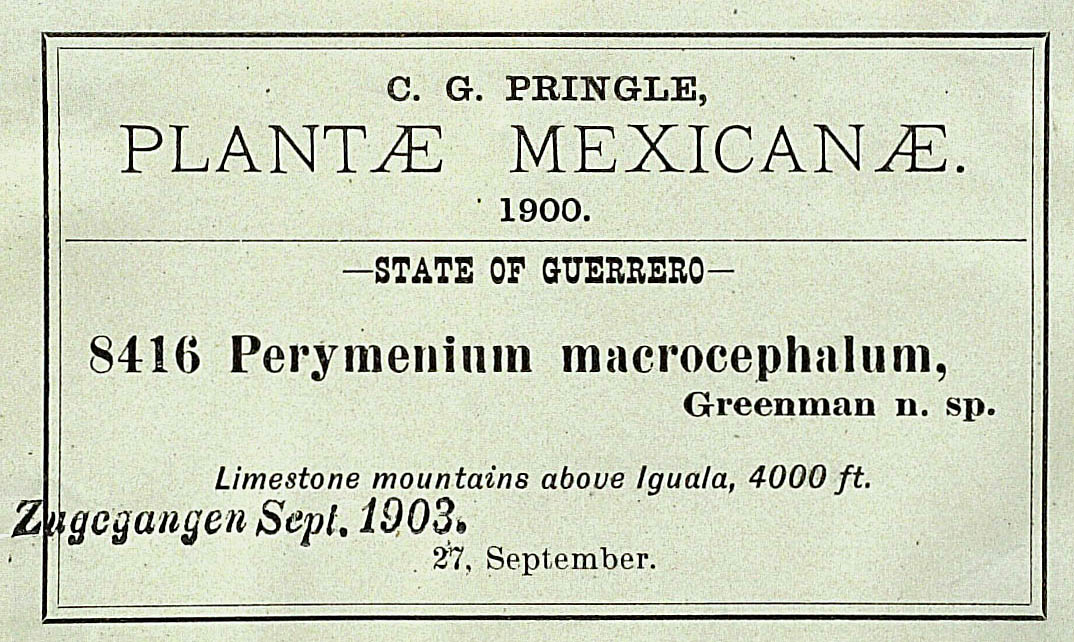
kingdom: Plantae
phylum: Tracheophyta
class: Magnoliopsida
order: Asterales
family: Asteraceae
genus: Perymenium
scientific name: Perymenium macrocephalum
